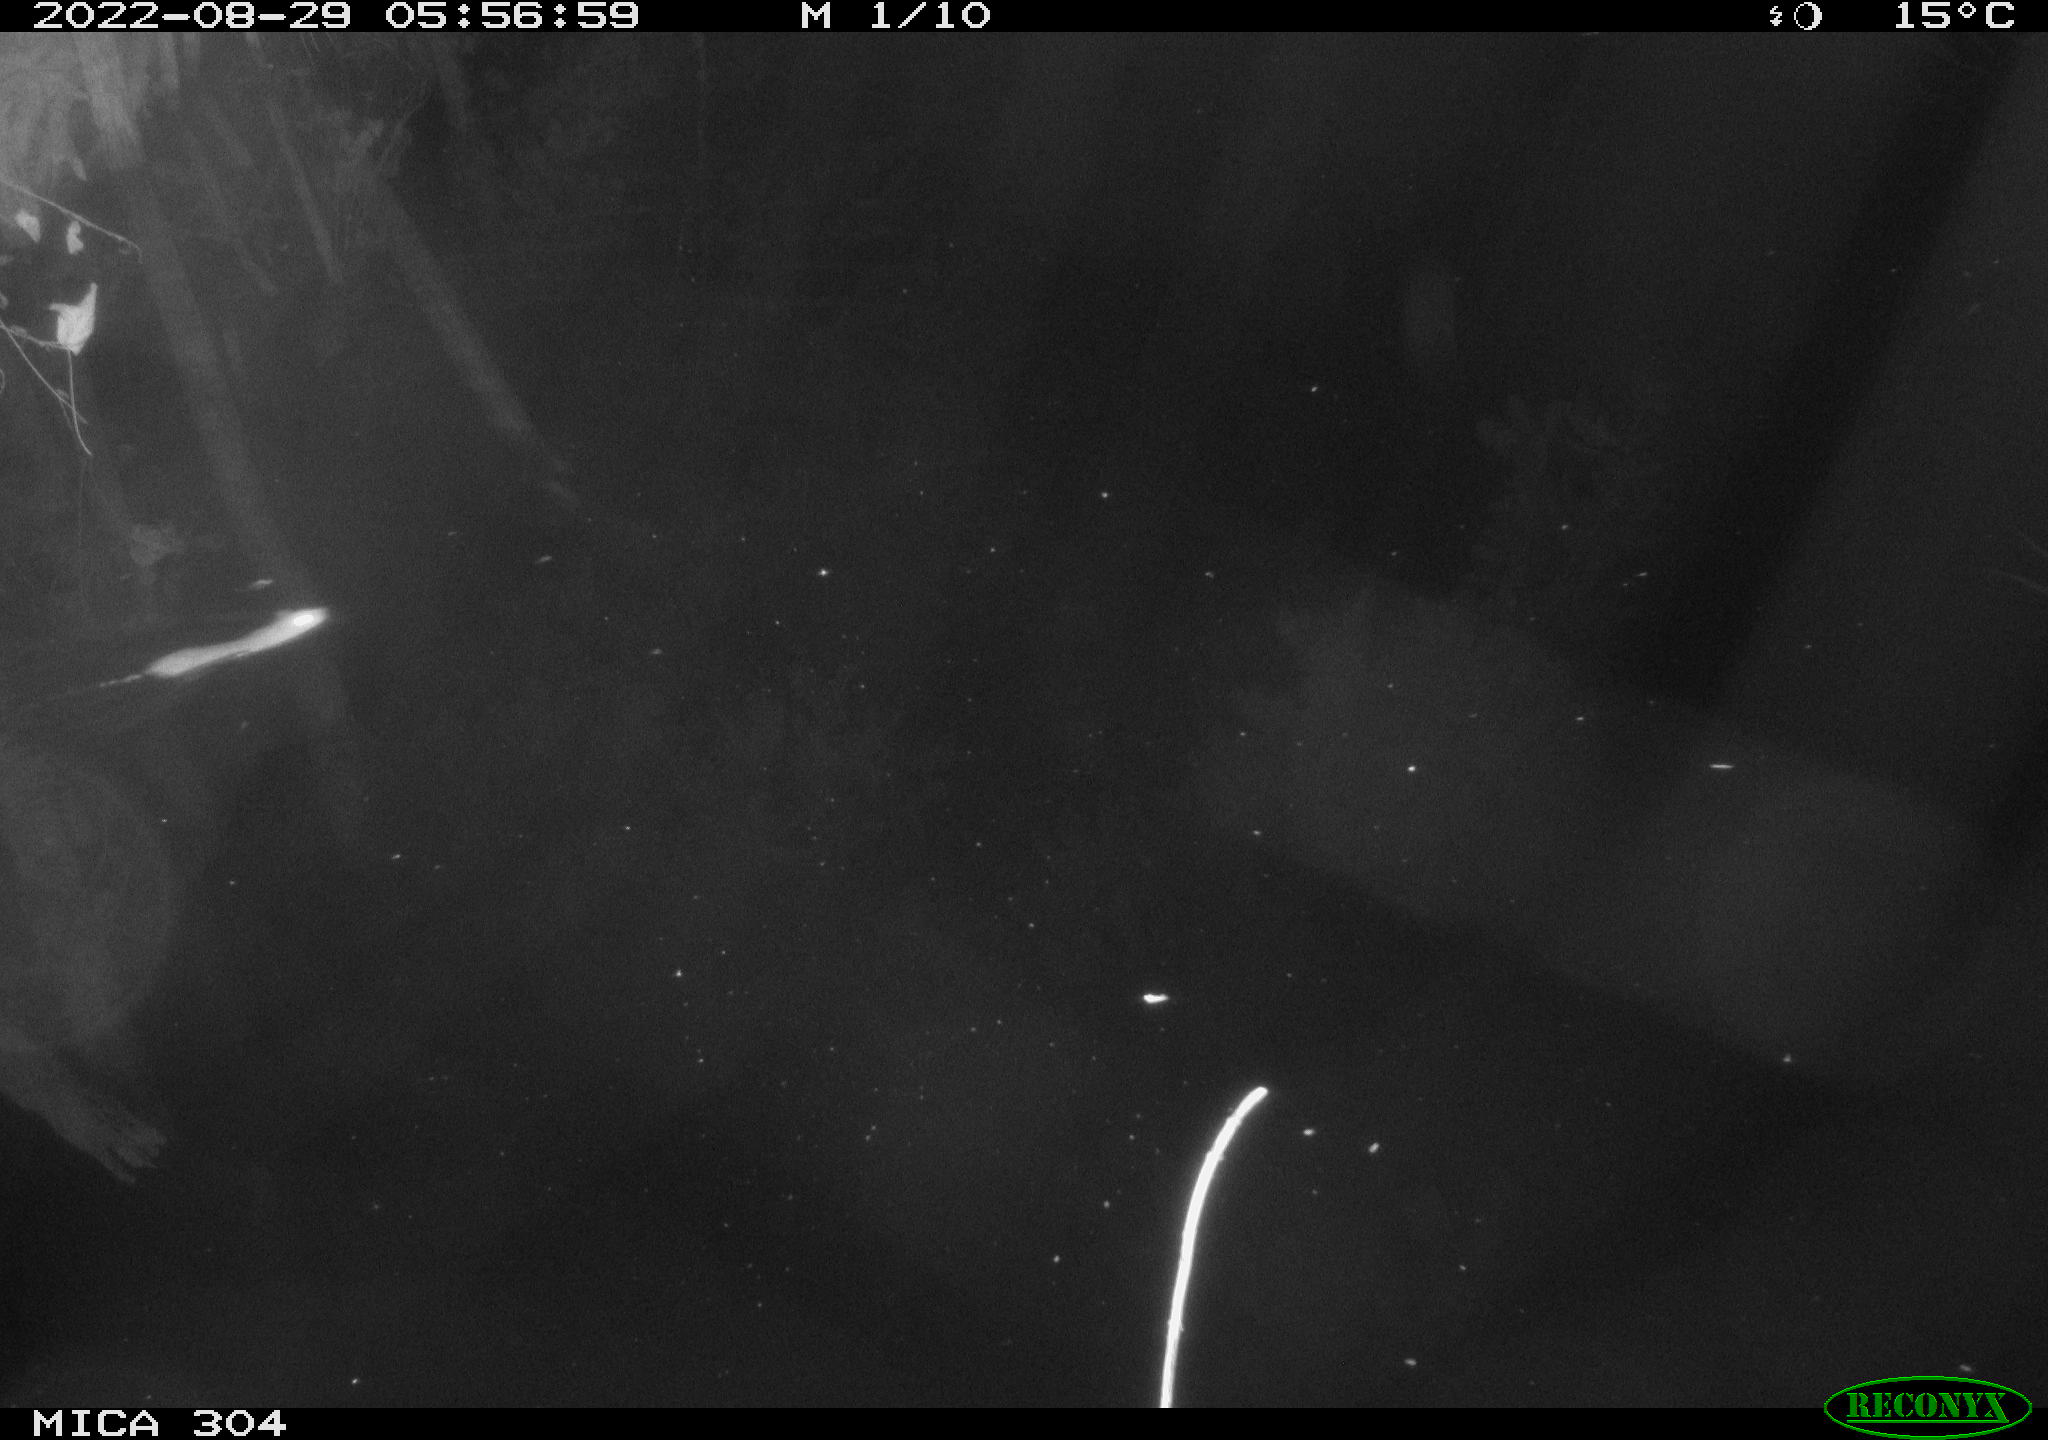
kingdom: Animalia
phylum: Chordata
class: Mammalia
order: Rodentia
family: Muridae
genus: Rattus
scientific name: Rattus norvegicus
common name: Brown rat
